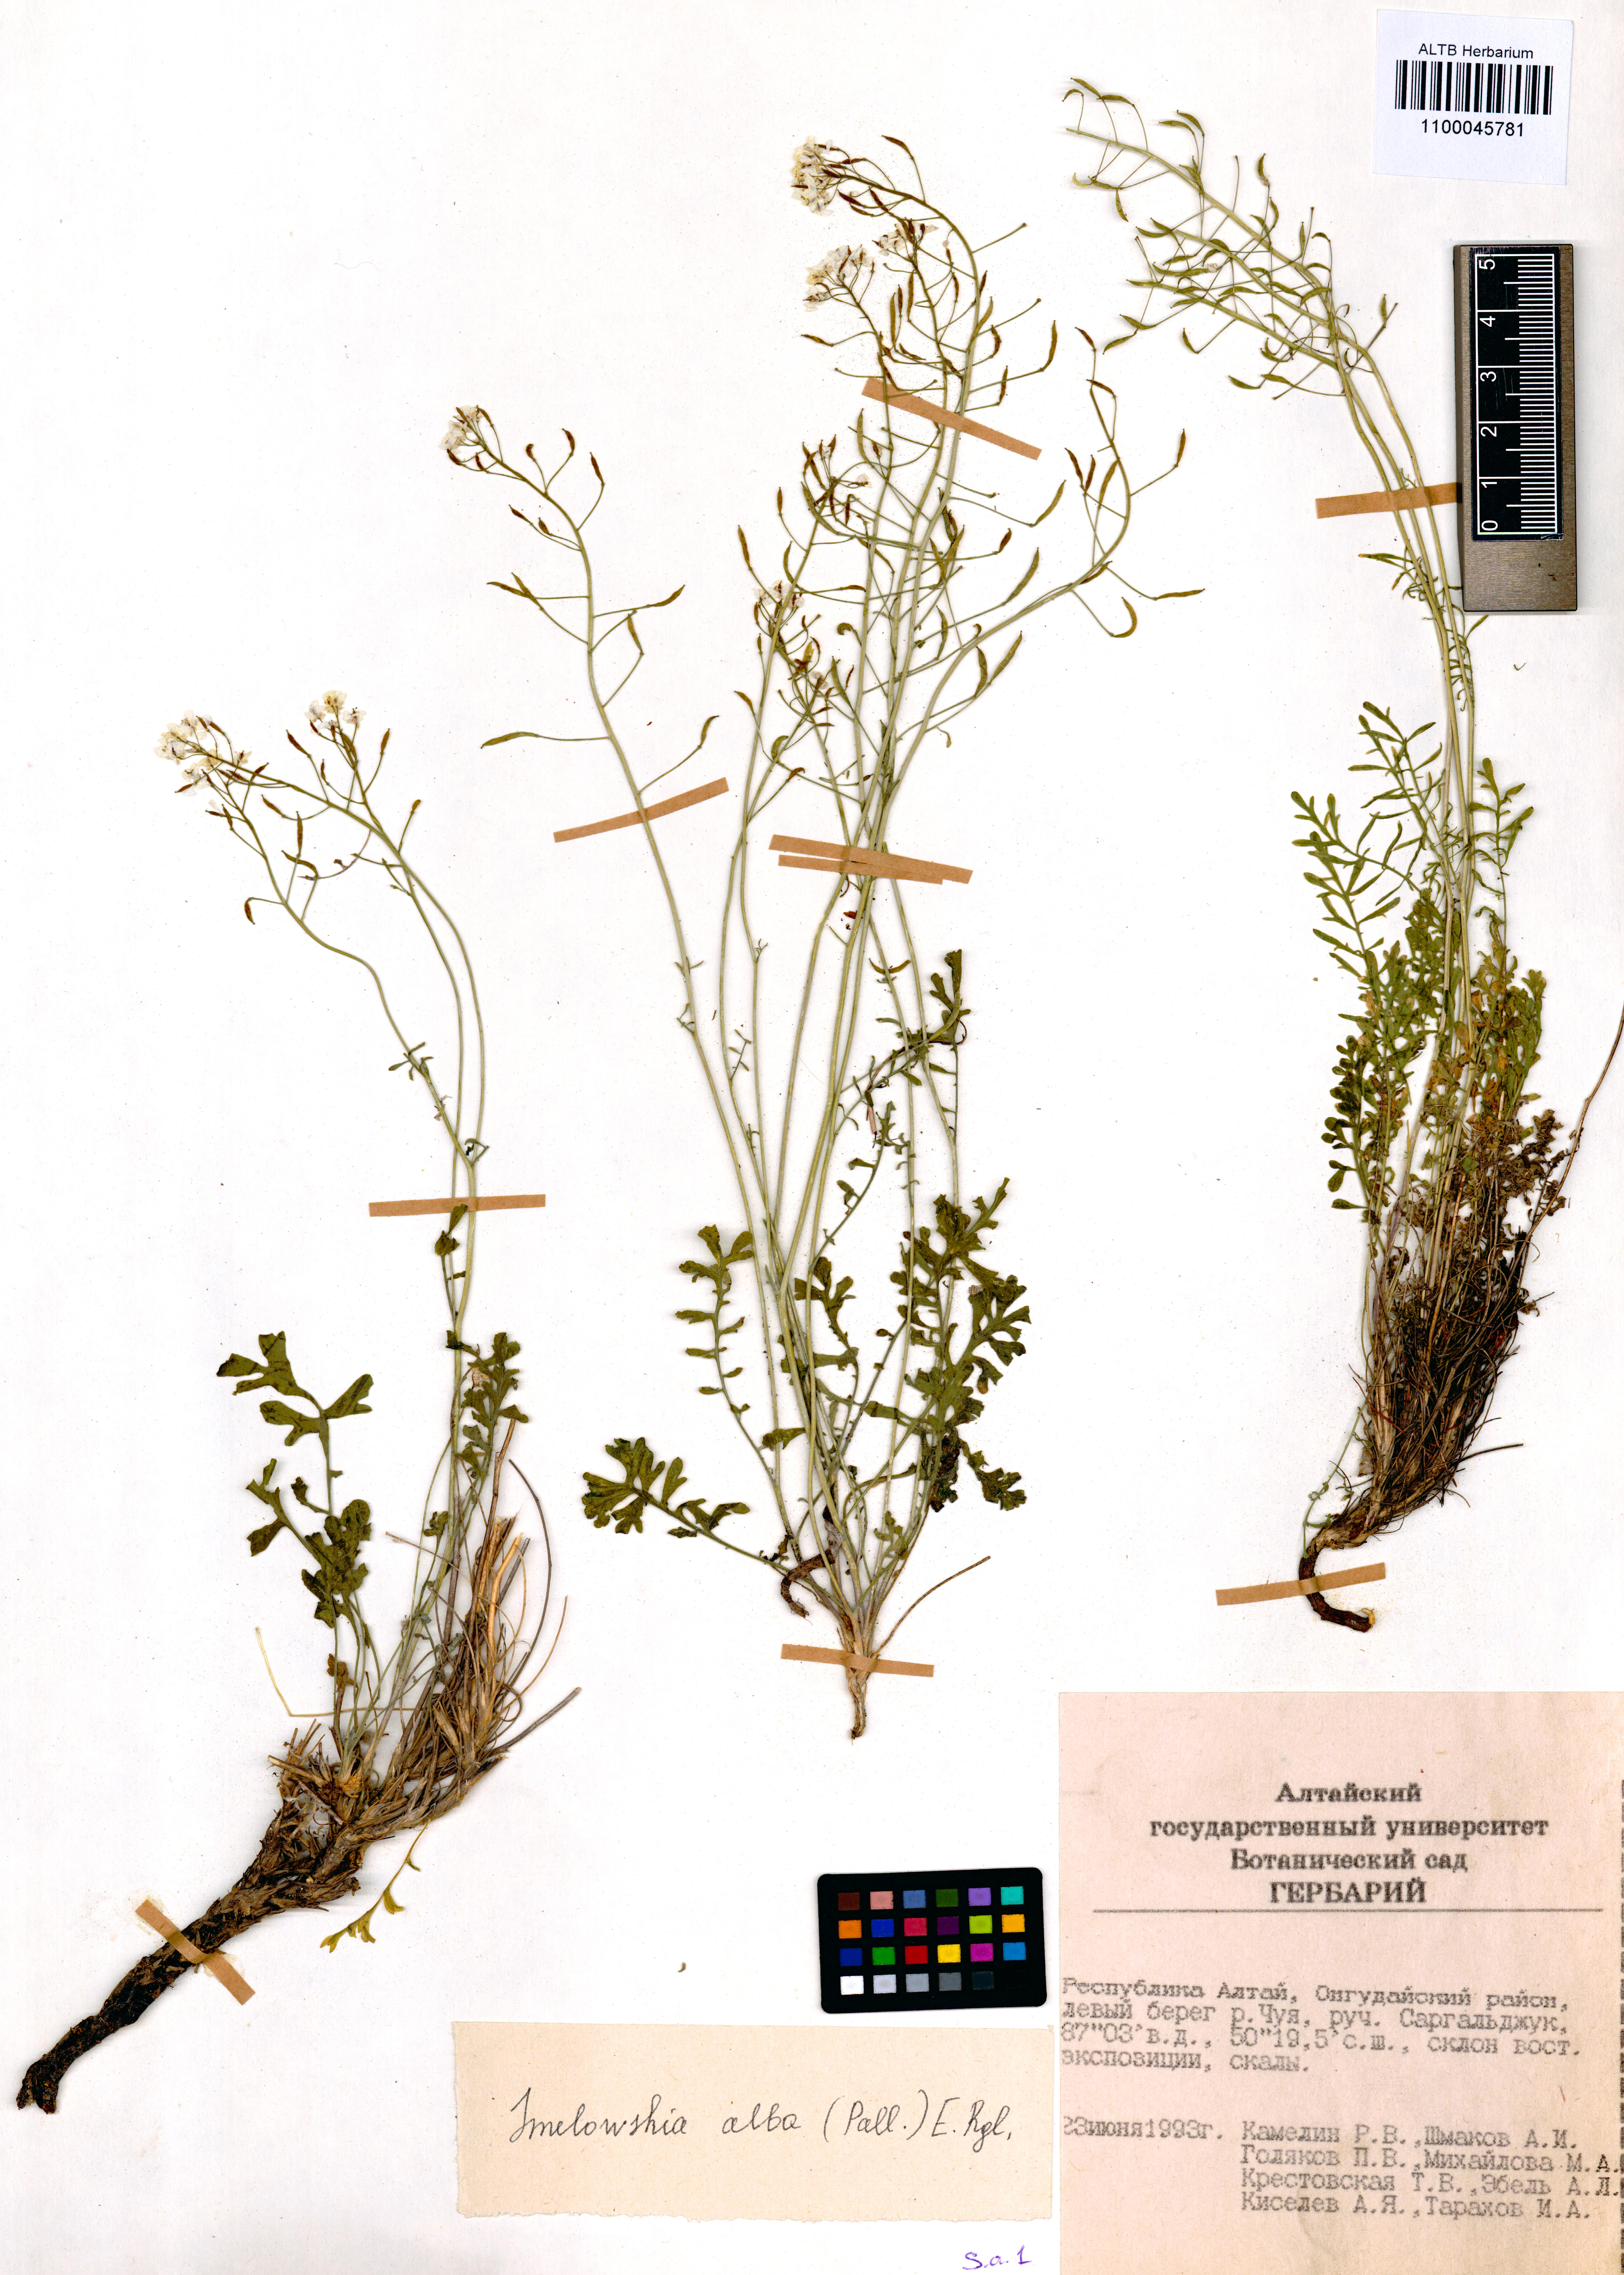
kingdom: Plantae
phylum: Tracheophyta
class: Magnoliopsida
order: Brassicales
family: Brassicaceae
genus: Smelowskia
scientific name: Smelowskia alba
